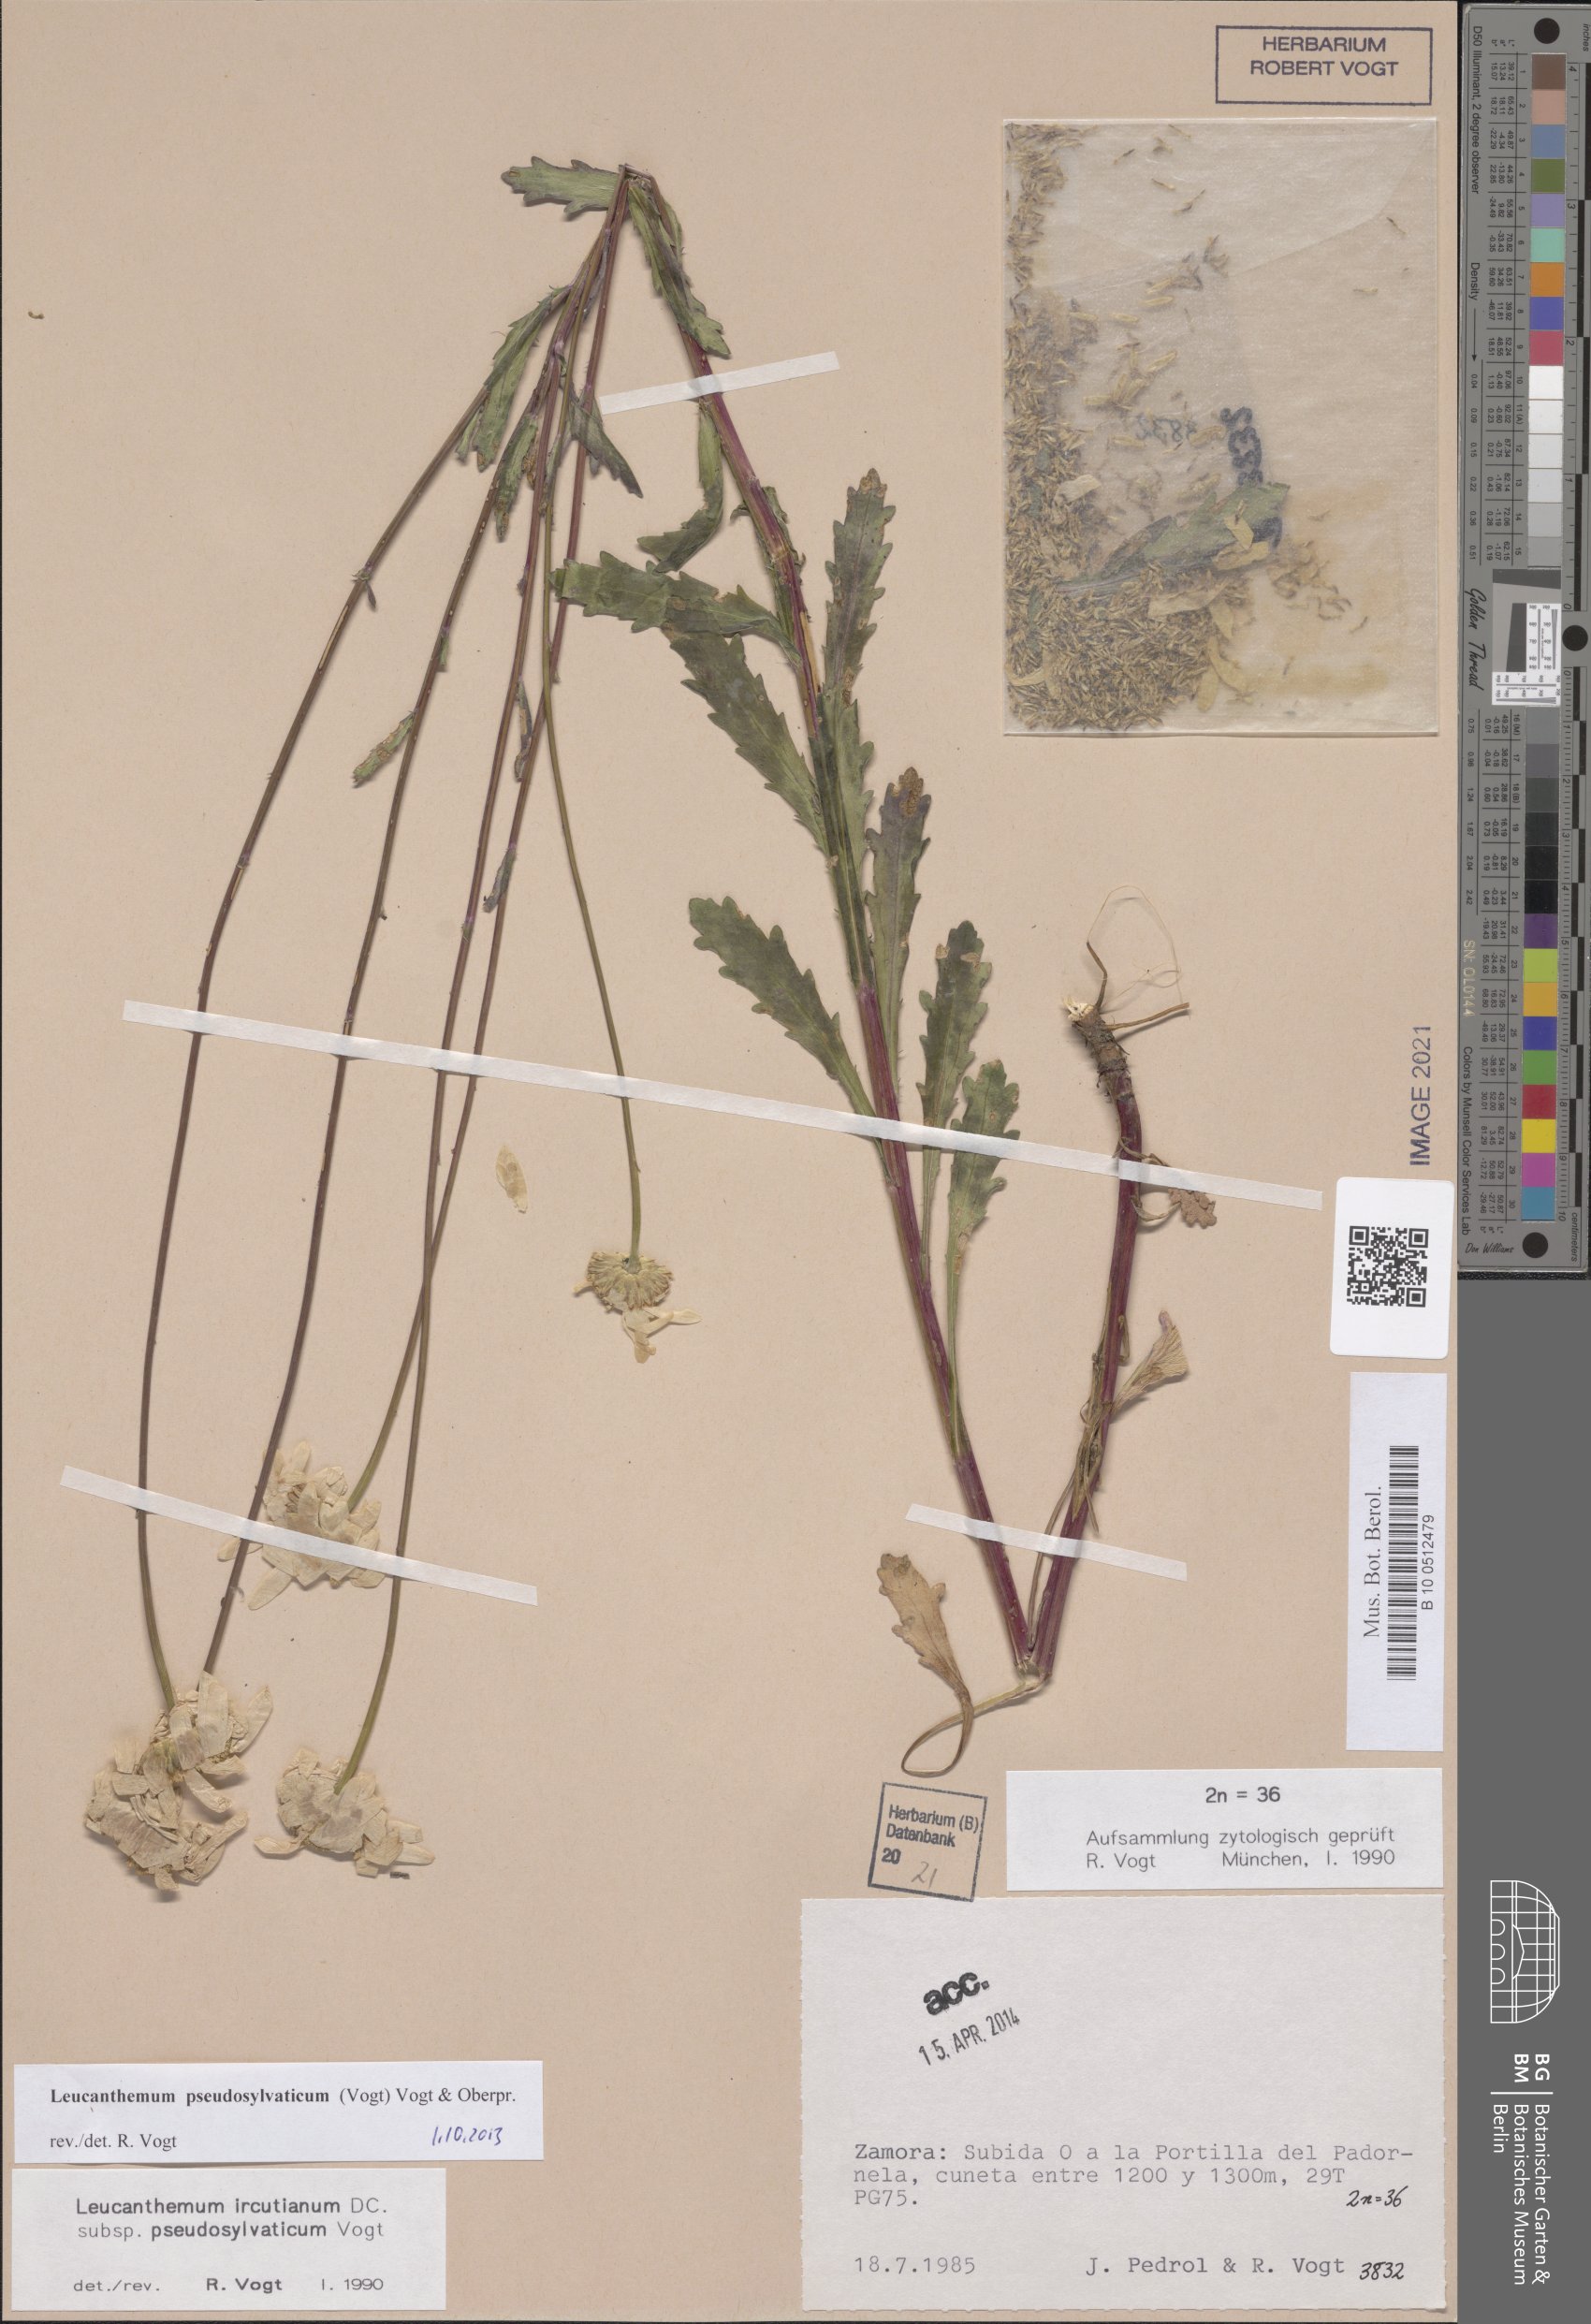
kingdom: Plantae
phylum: Tracheophyta
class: Magnoliopsida
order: Asterales
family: Asteraceae
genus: Leucanthemum
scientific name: Leucanthemum pseudosylvaticum
